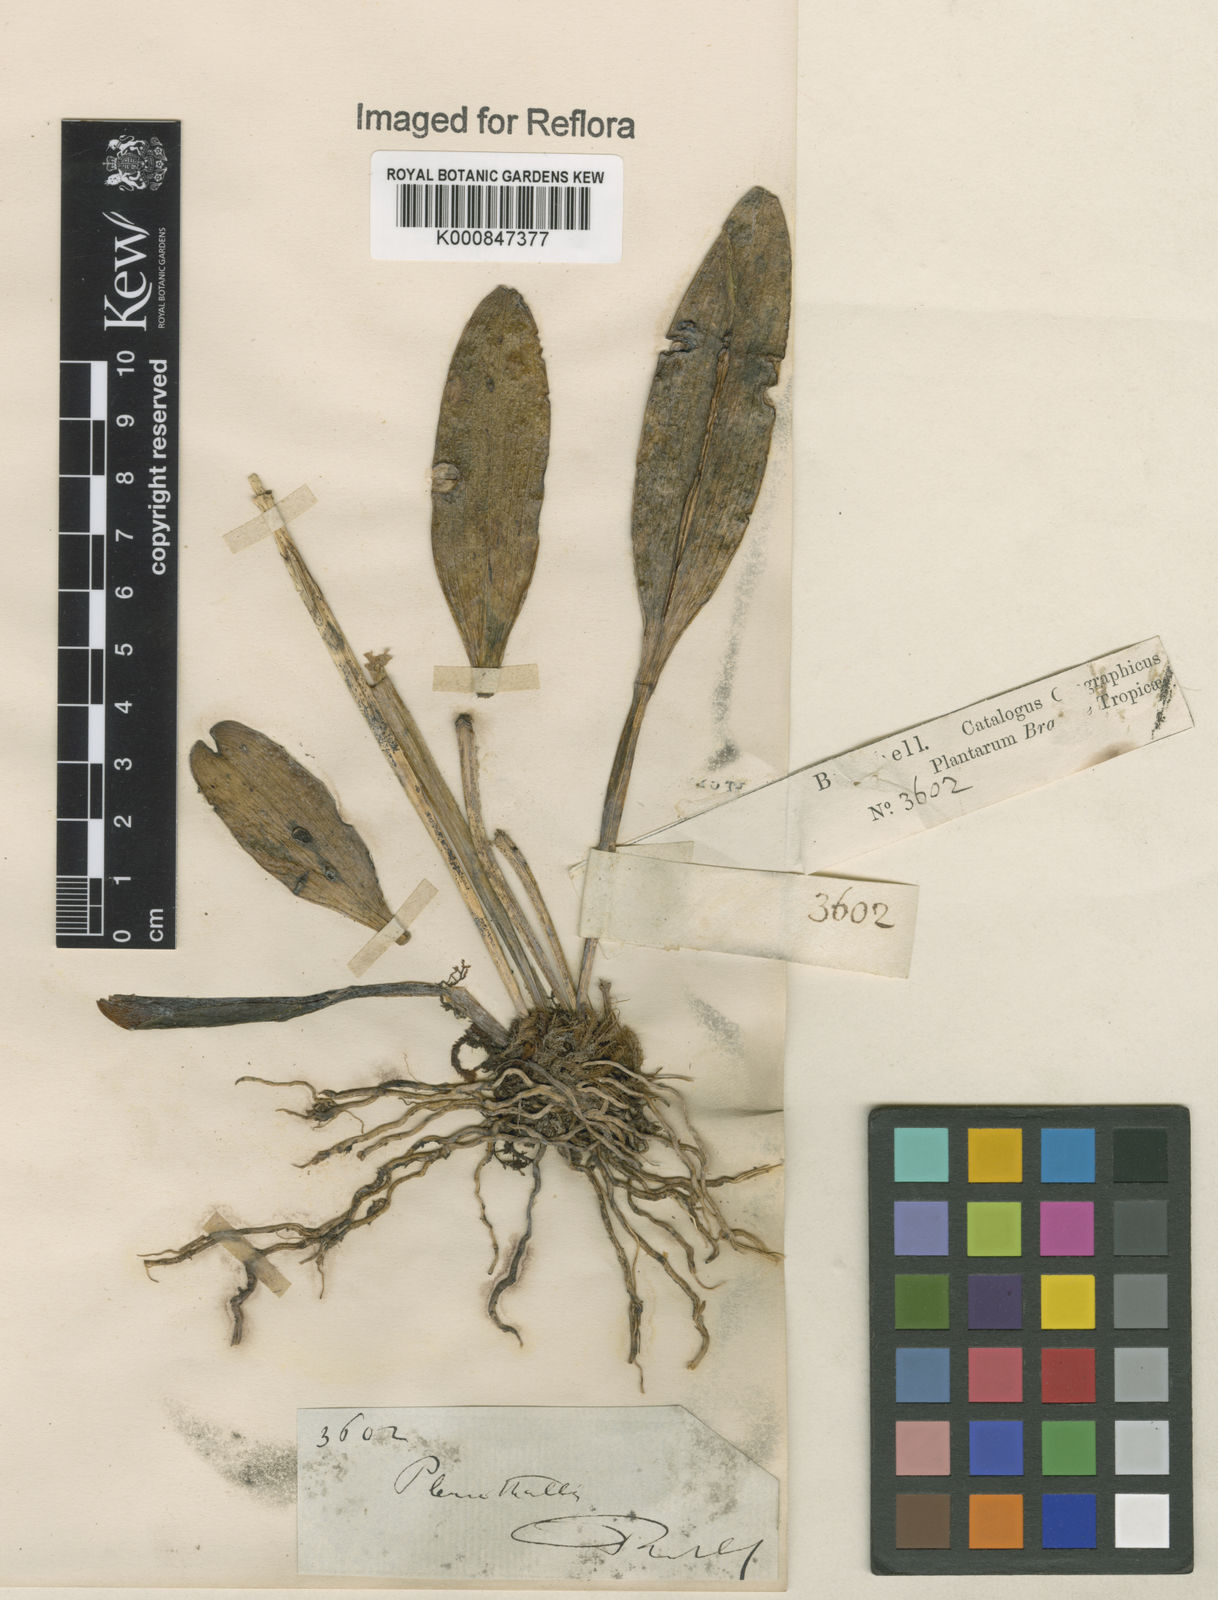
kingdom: Plantae
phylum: Tracheophyta
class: Liliopsida
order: Asparagales
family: Orchidaceae
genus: Pleurothallis
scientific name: Pleurothallis
